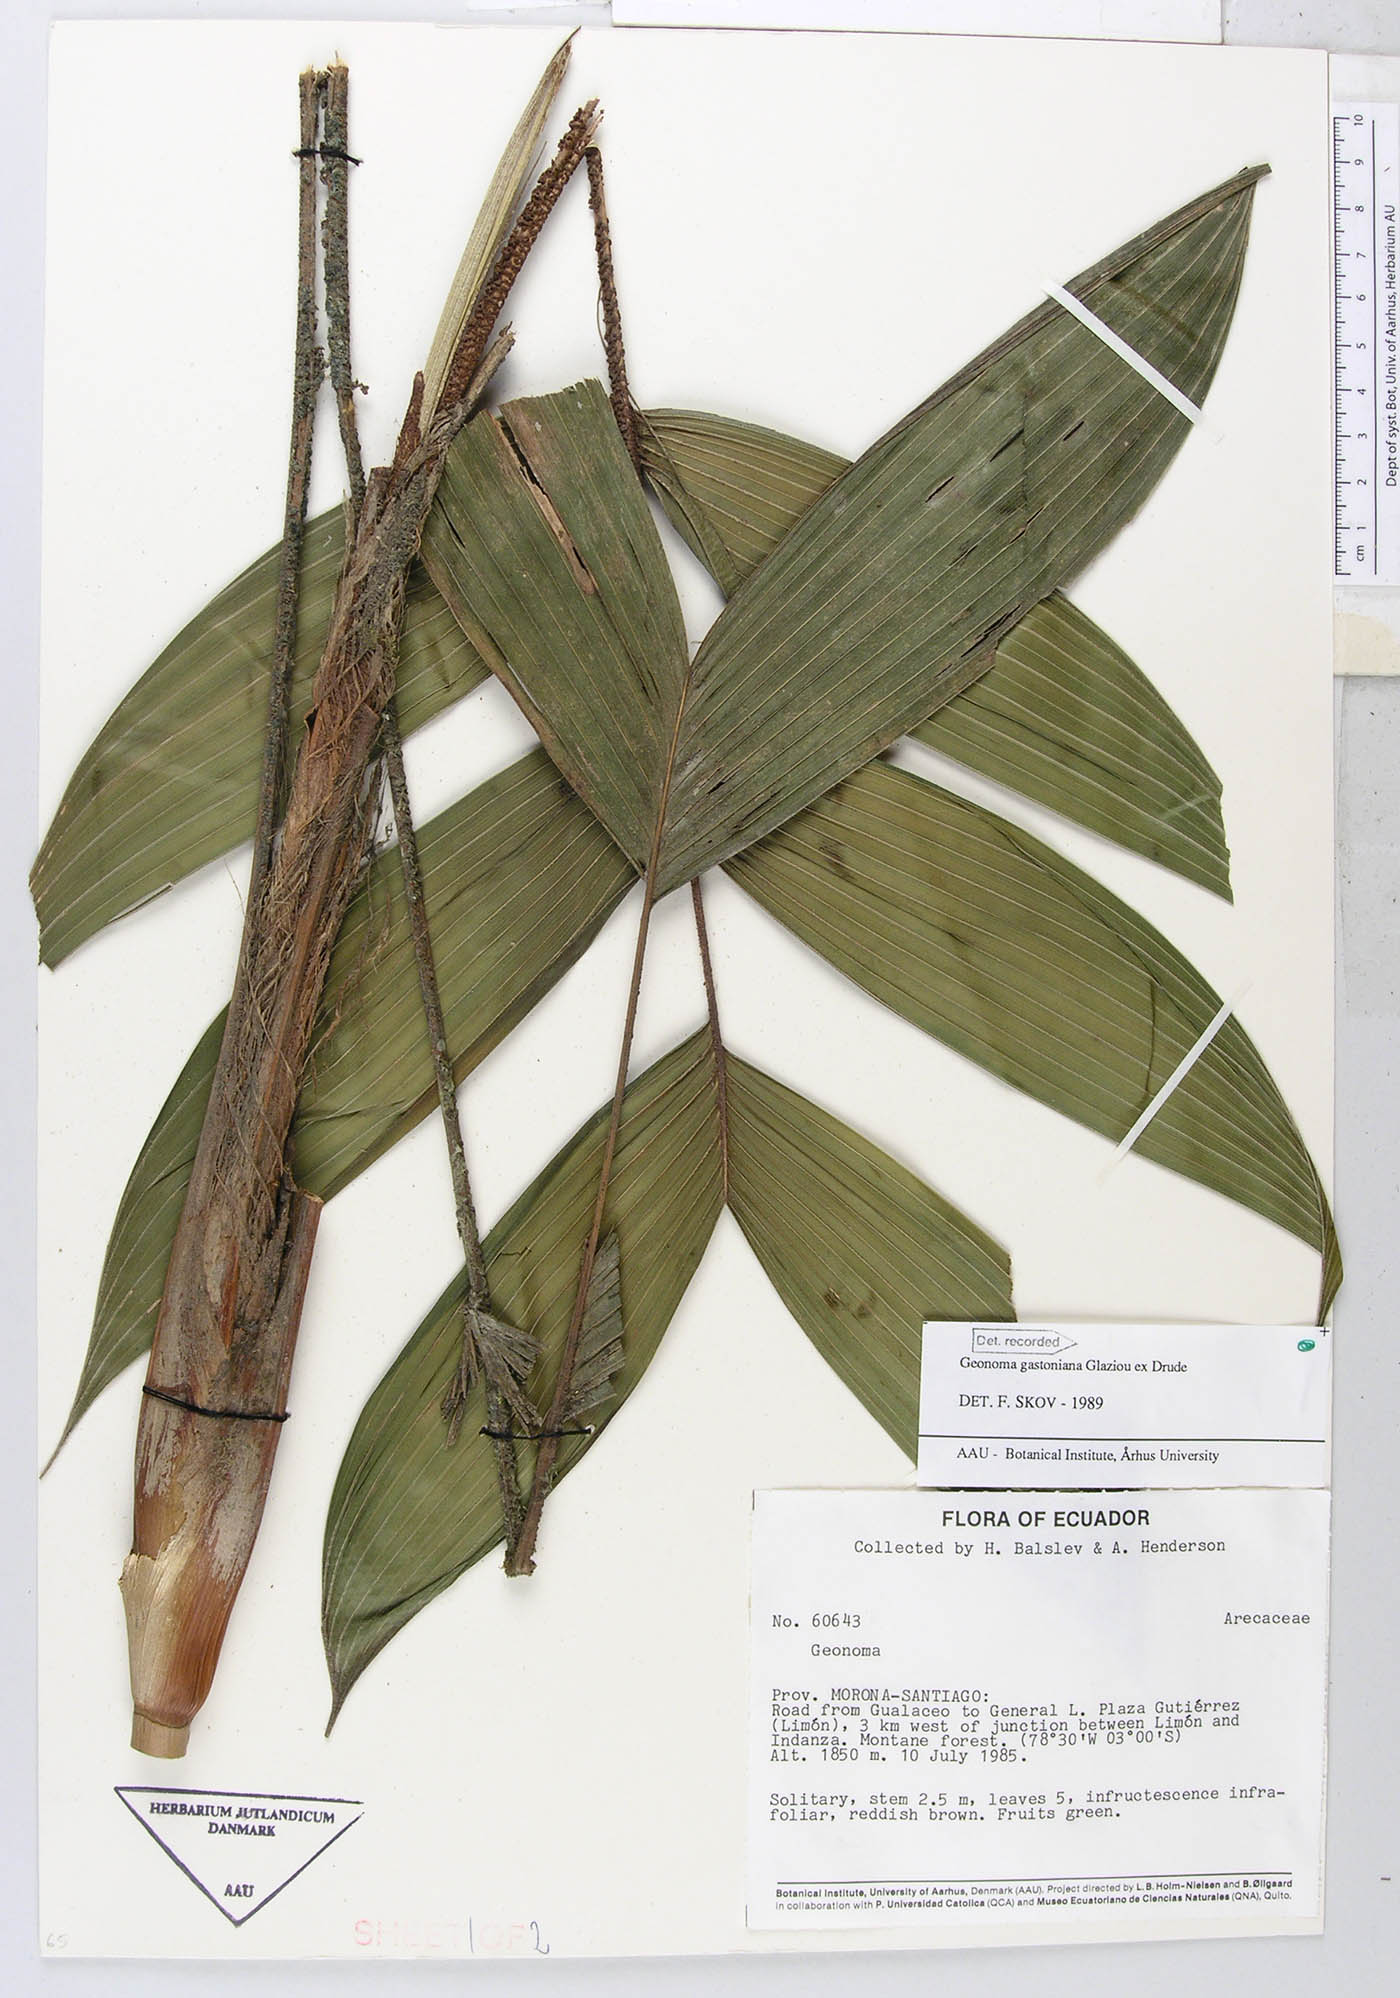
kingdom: Plantae
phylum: Tracheophyta
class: Liliopsida
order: Arecales
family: Arecaceae
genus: Geonoma
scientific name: Geonoma undata
